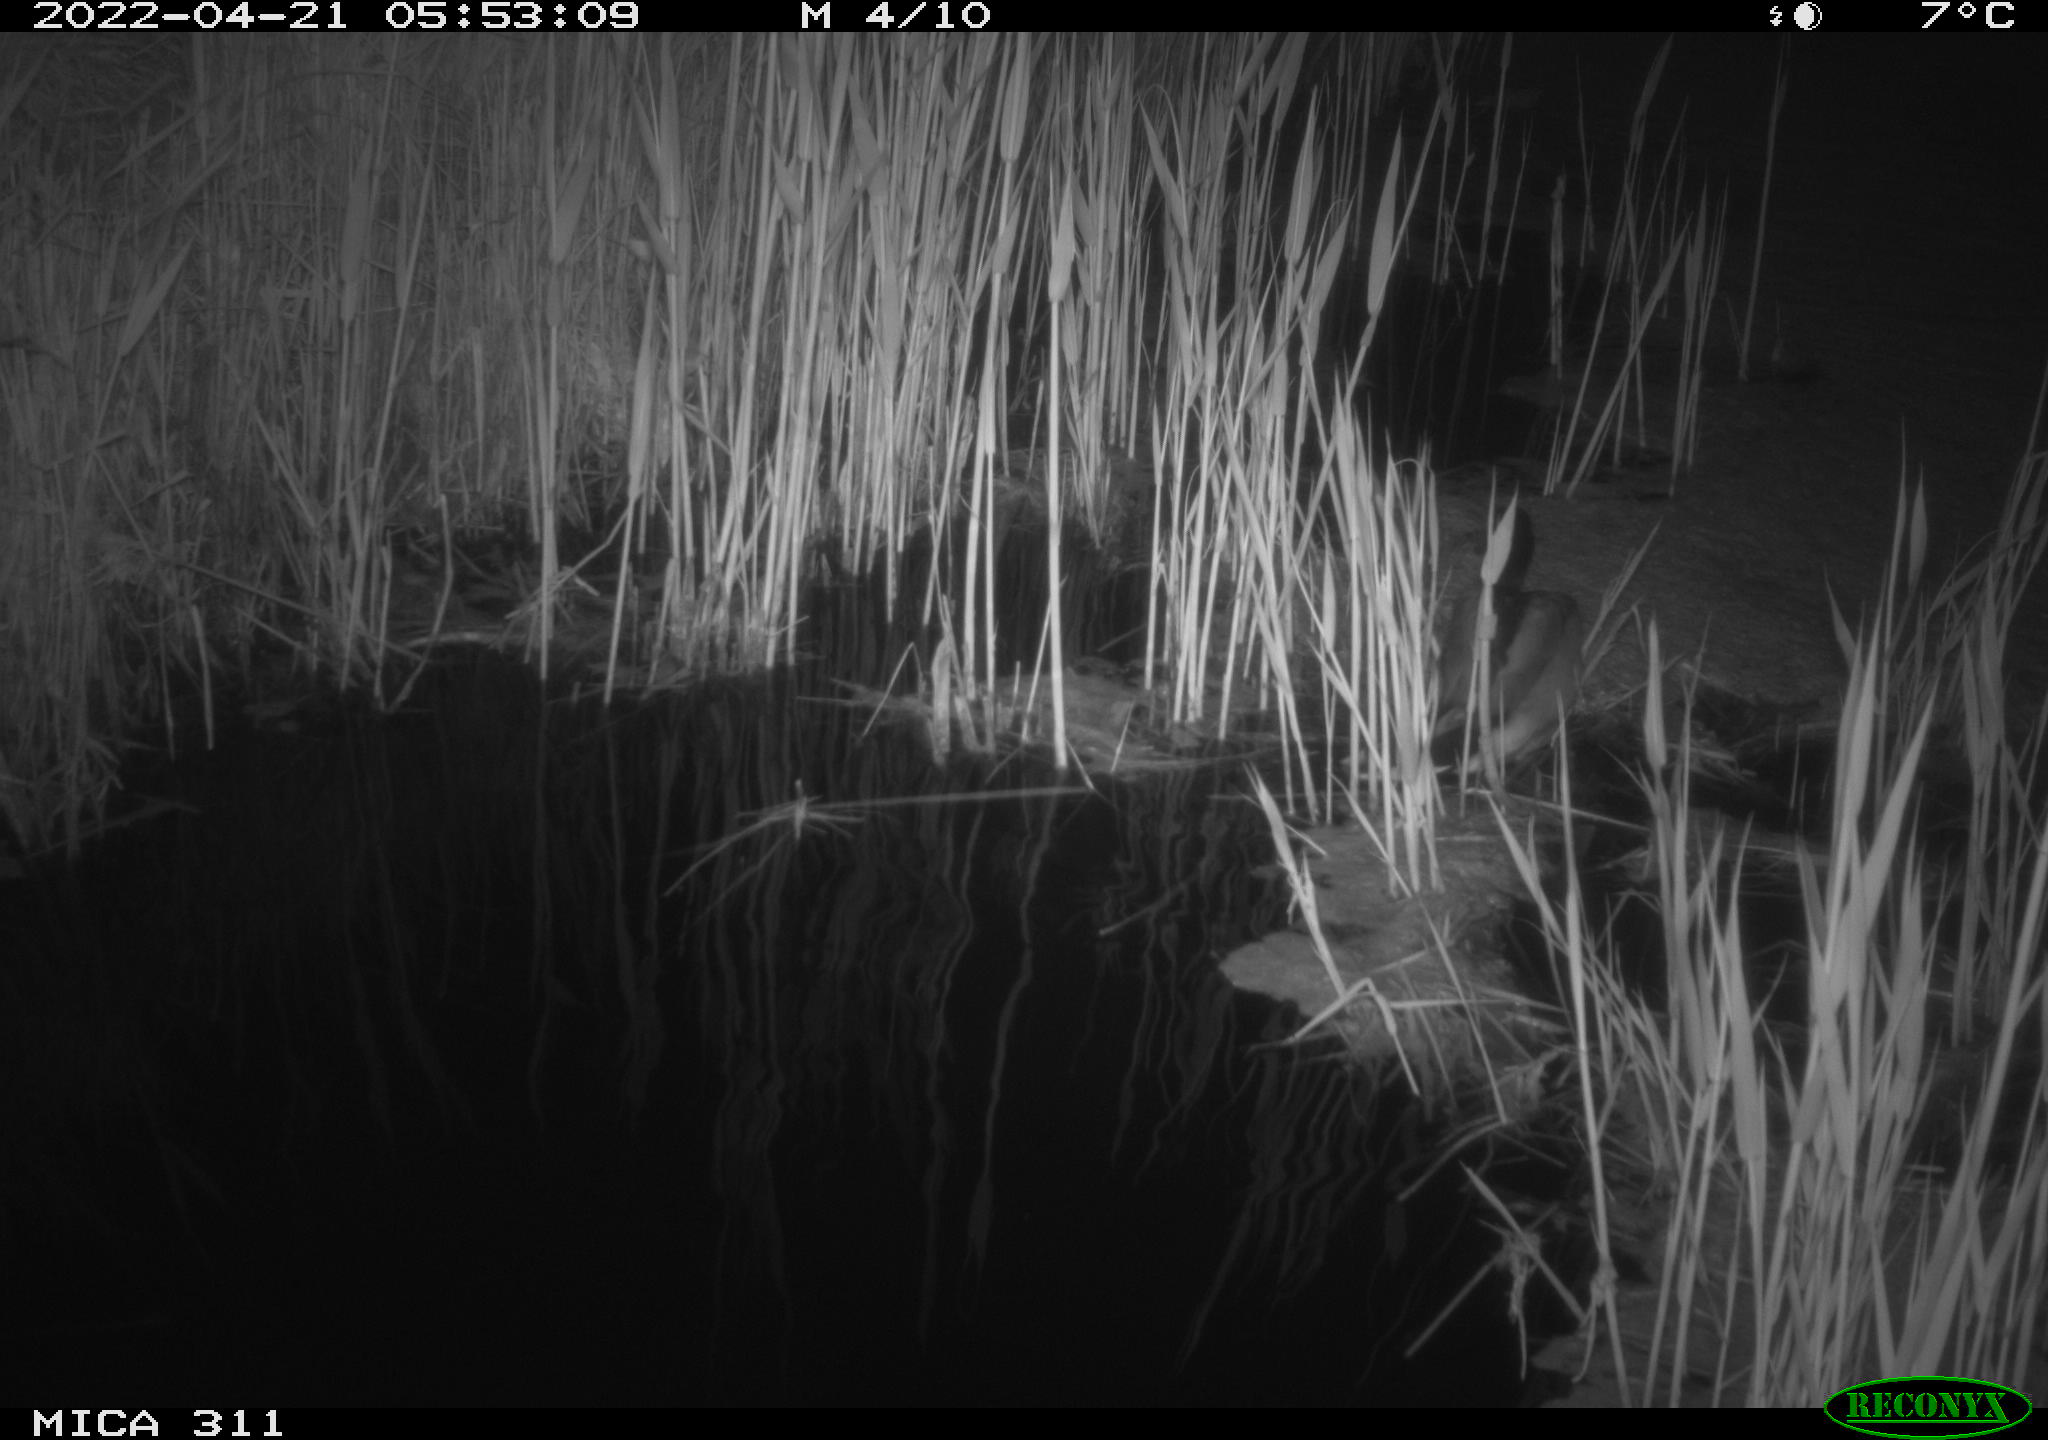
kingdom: Animalia
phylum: Chordata
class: Aves
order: Anseriformes
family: Anatidae
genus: Anas
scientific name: Anas platyrhynchos
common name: Mallard
